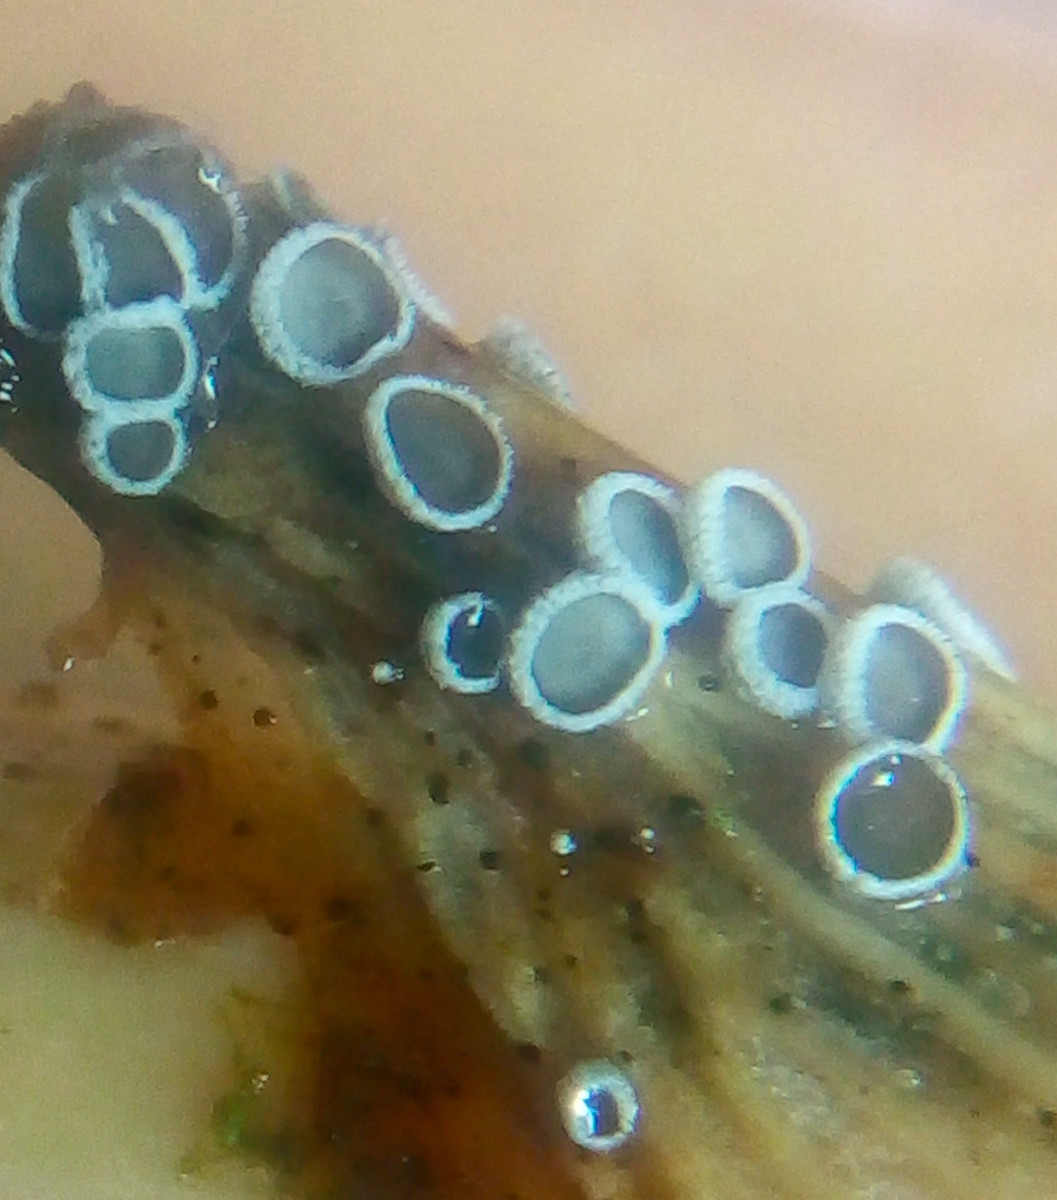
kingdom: Fungi
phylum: Basidiomycota
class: Agaricomycetes
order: Agaricales
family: Niaceae
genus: Lachnella
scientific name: Lachnella alboviolascens
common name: grå frynserede
